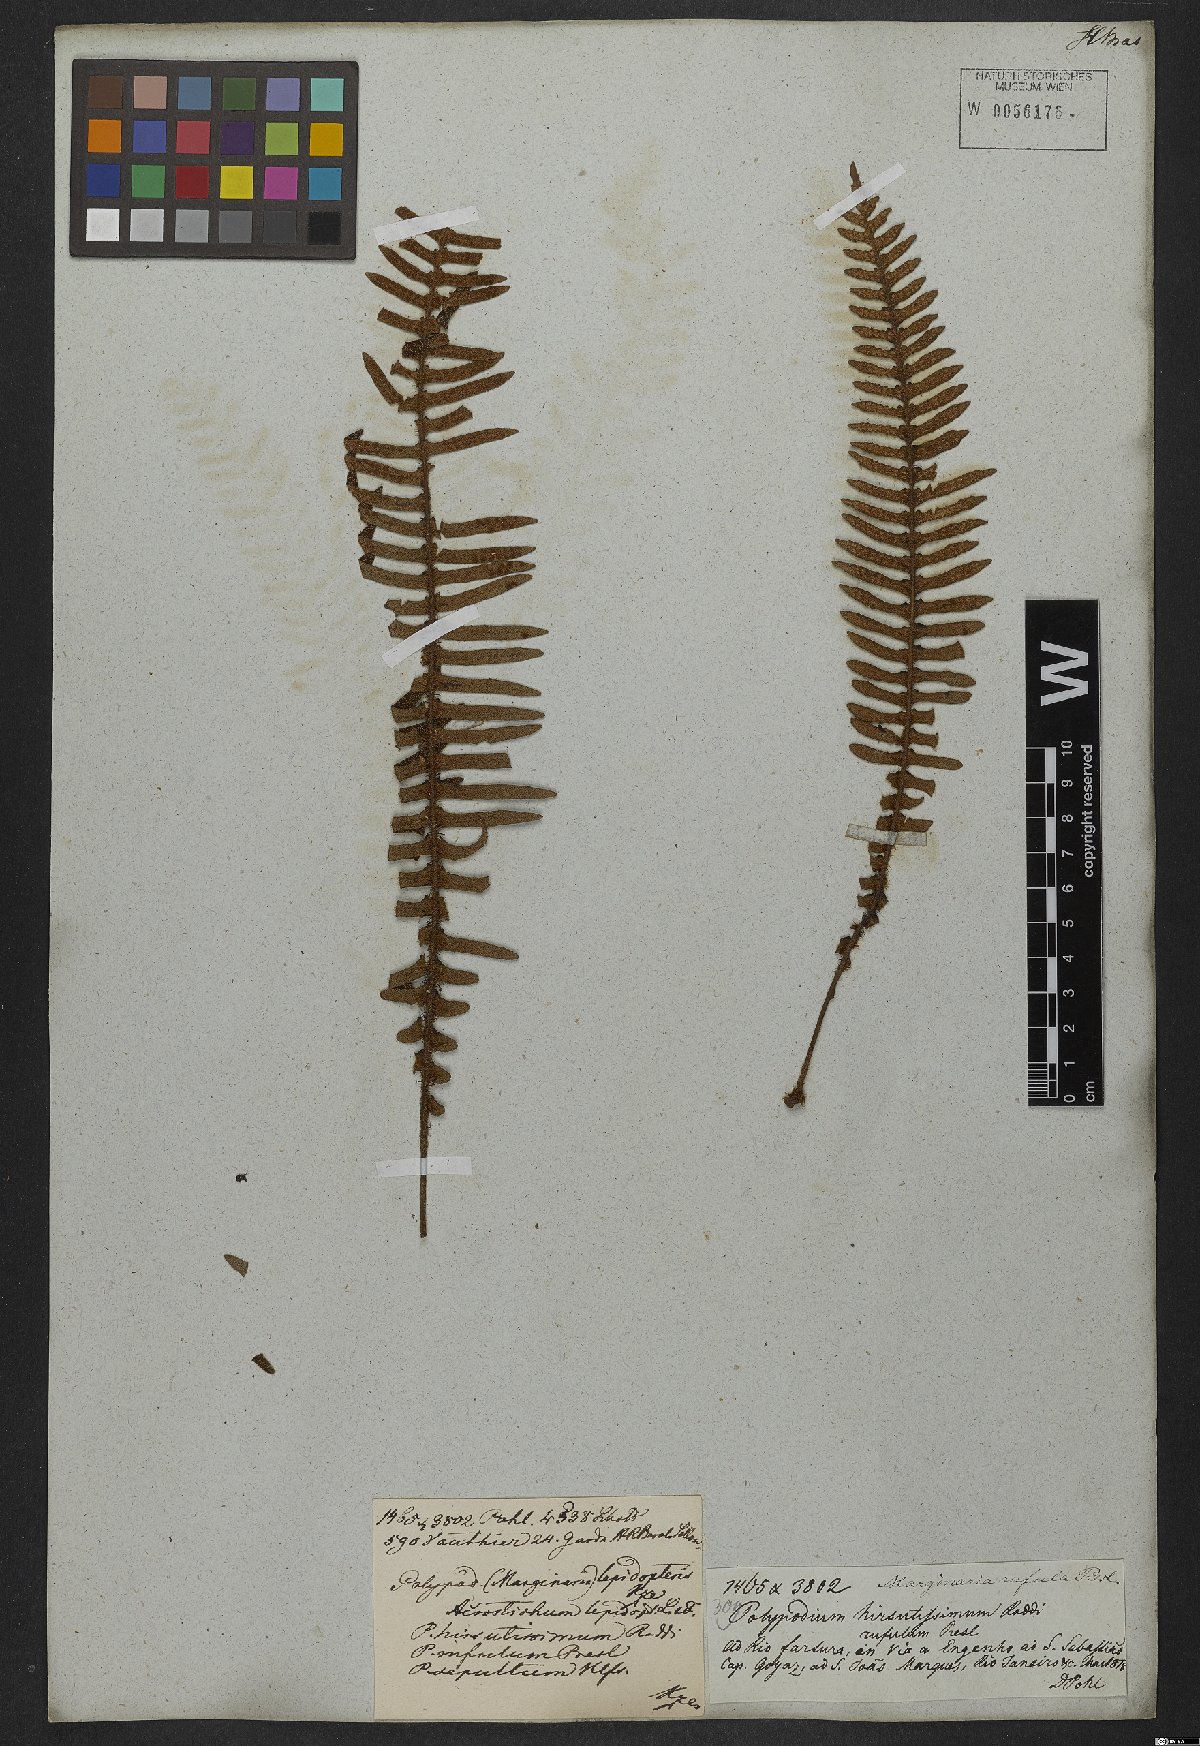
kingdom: Plantae
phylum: Tracheophyta
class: Polypodiopsida
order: Polypodiales
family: Polypodiaceae
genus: Pleopeltis
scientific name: Pleopeltis lepidopteris
